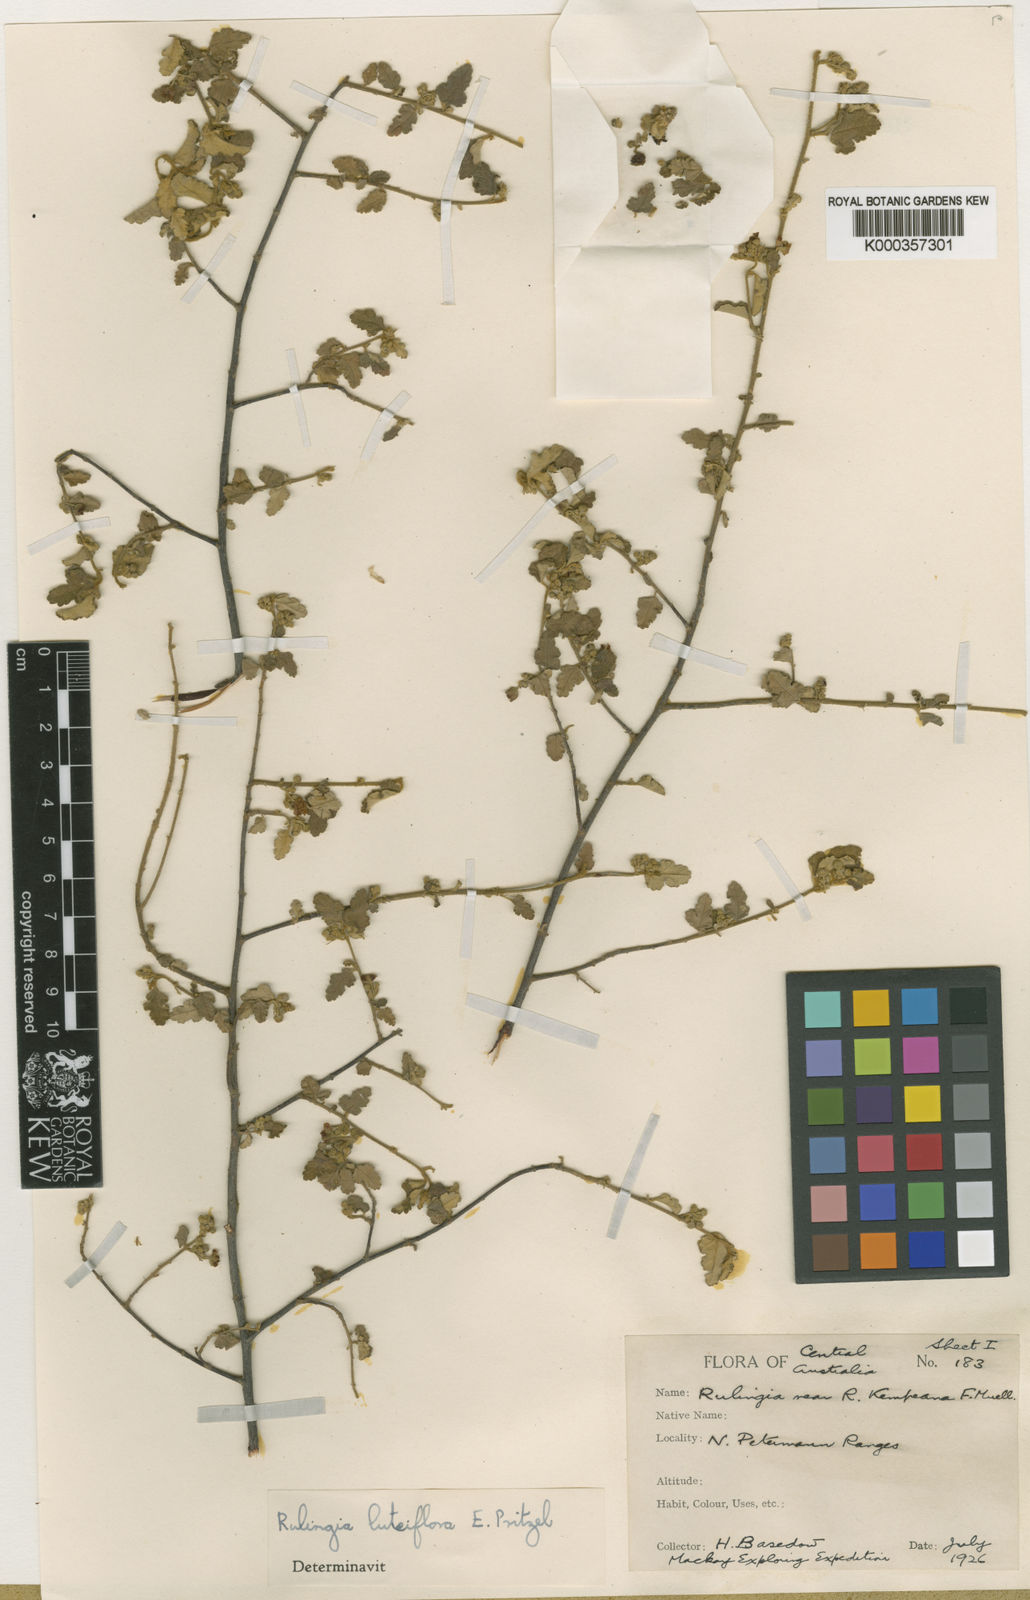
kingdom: Plantae
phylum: Tracheophyta
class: Magnoliopsida
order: Malvales
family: Malvaceae
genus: Androcalva
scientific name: Androcalva luteiflora
